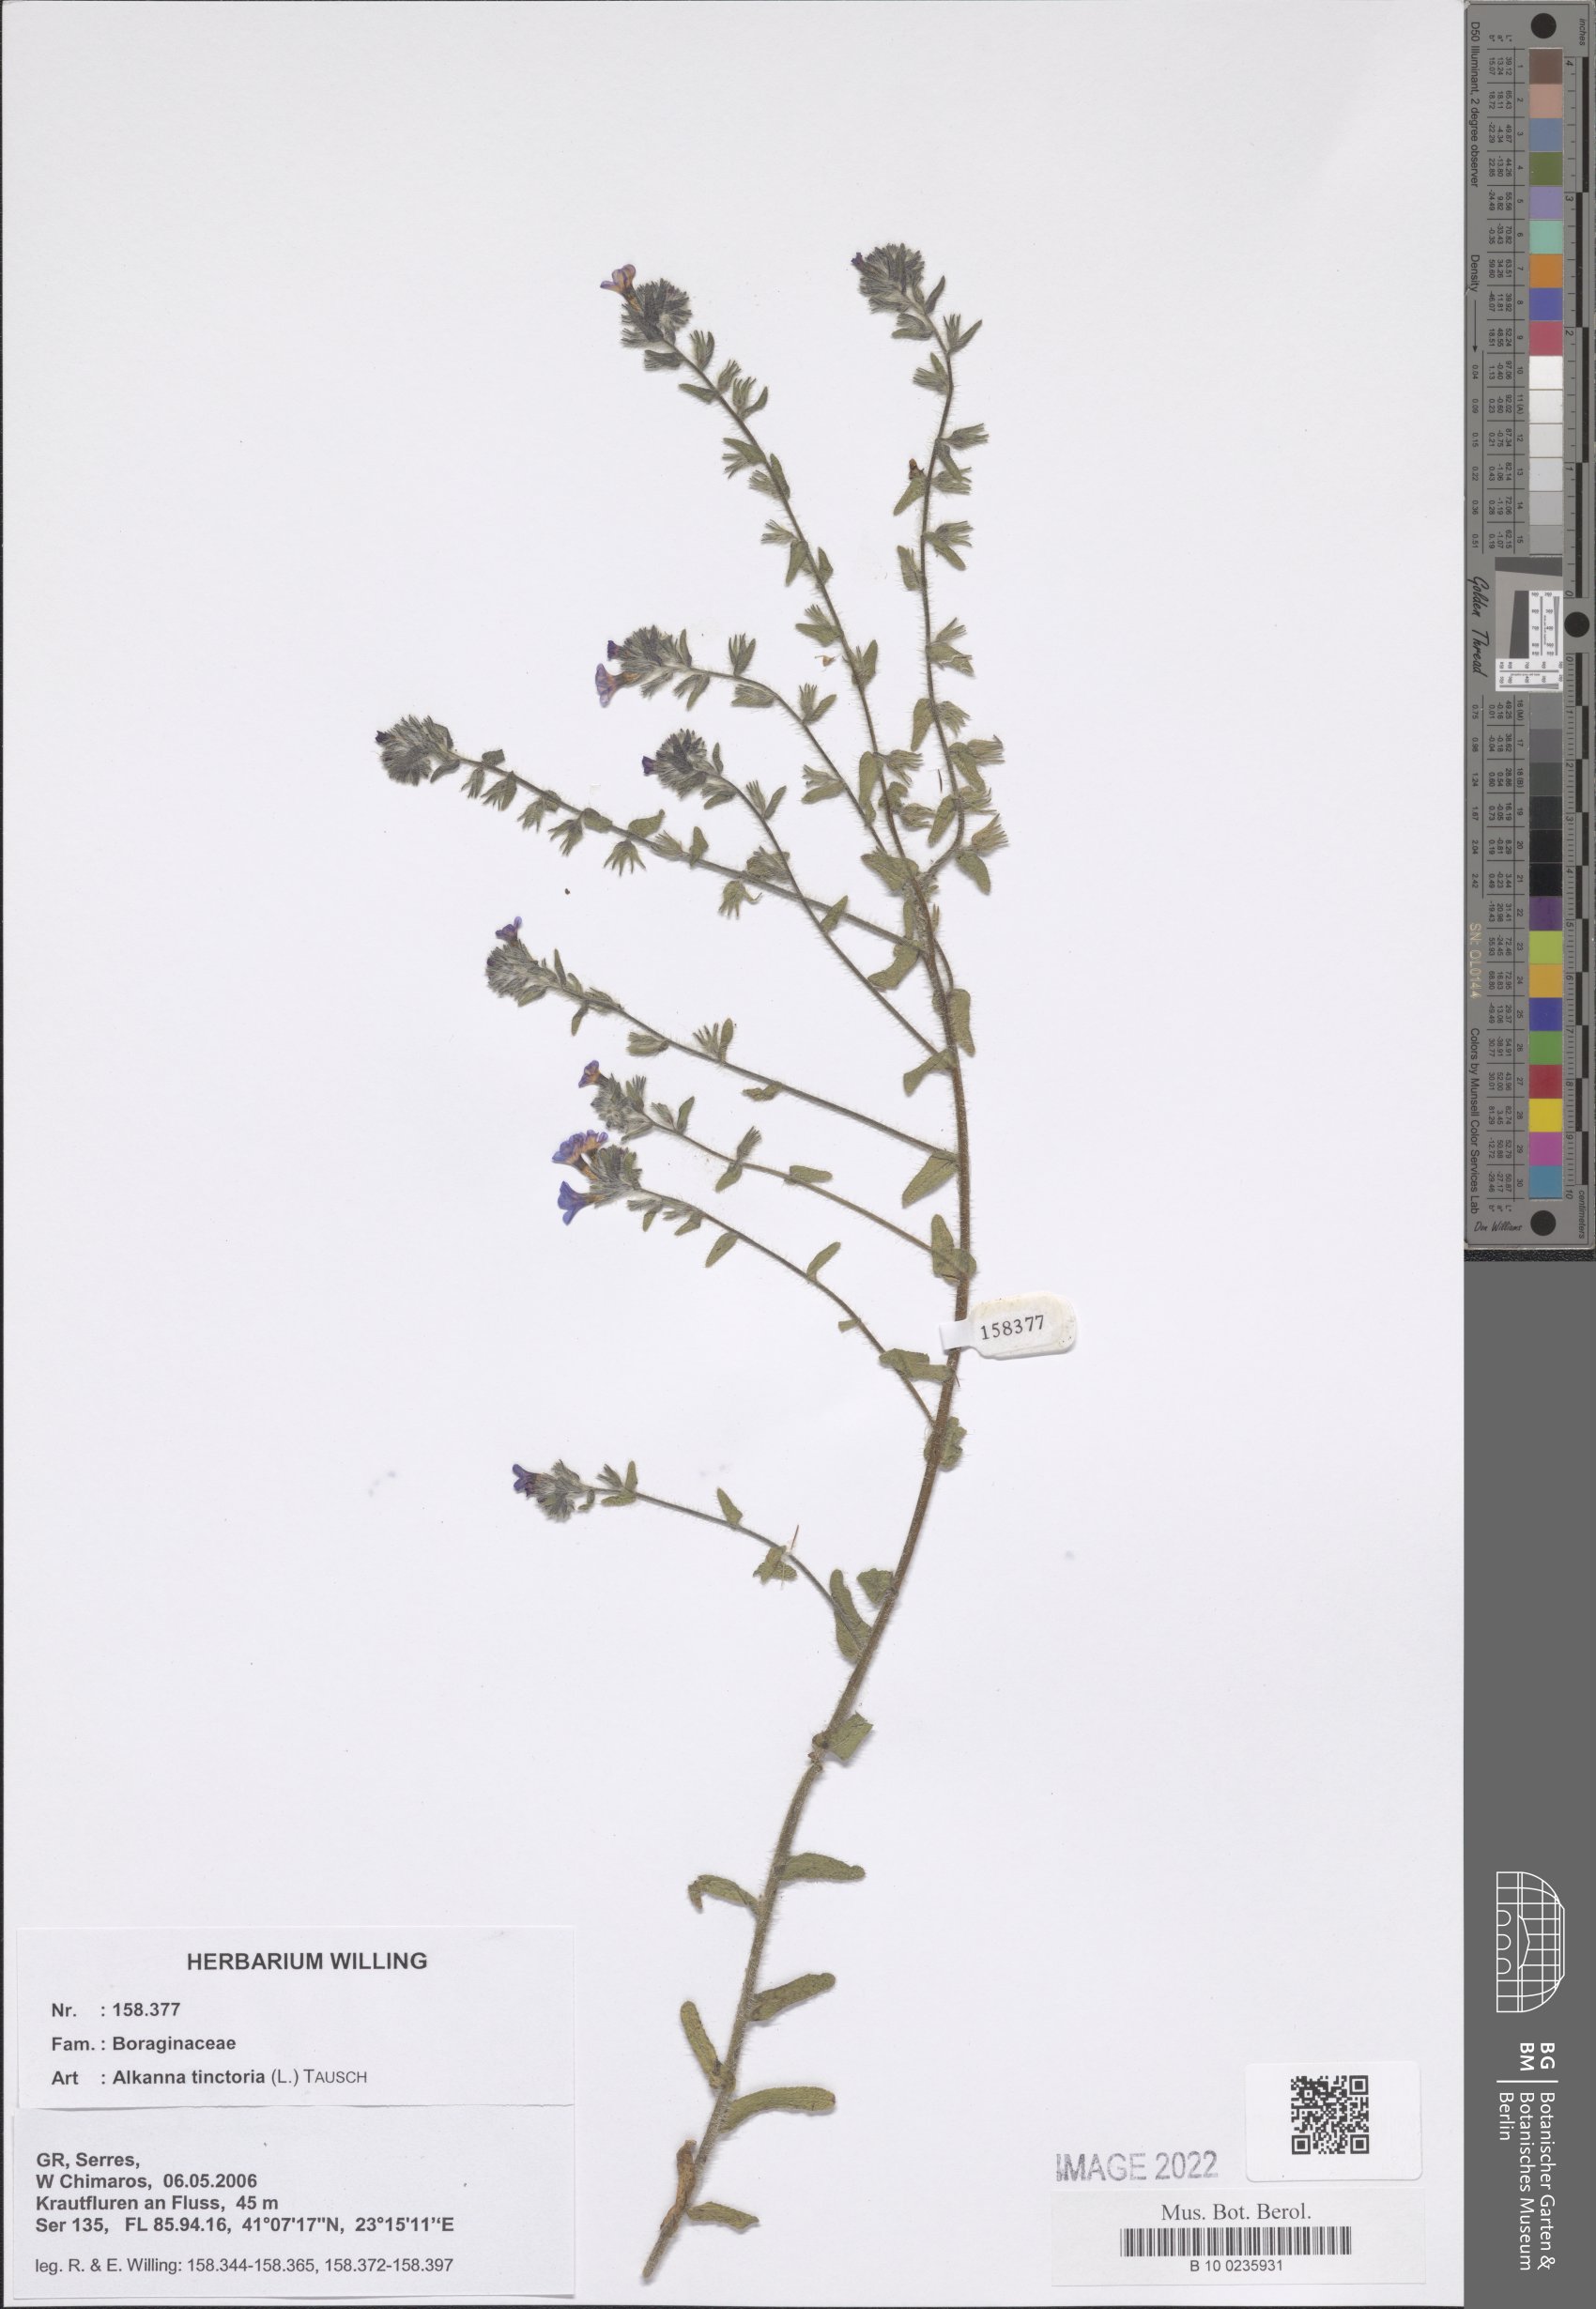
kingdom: Plantae
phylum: Tracheophyta
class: Magnoliopsida
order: Boraginales
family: Boraginaceae
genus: Alkanna
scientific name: Alkanna tinctoria
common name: Dyer's-alkanet
